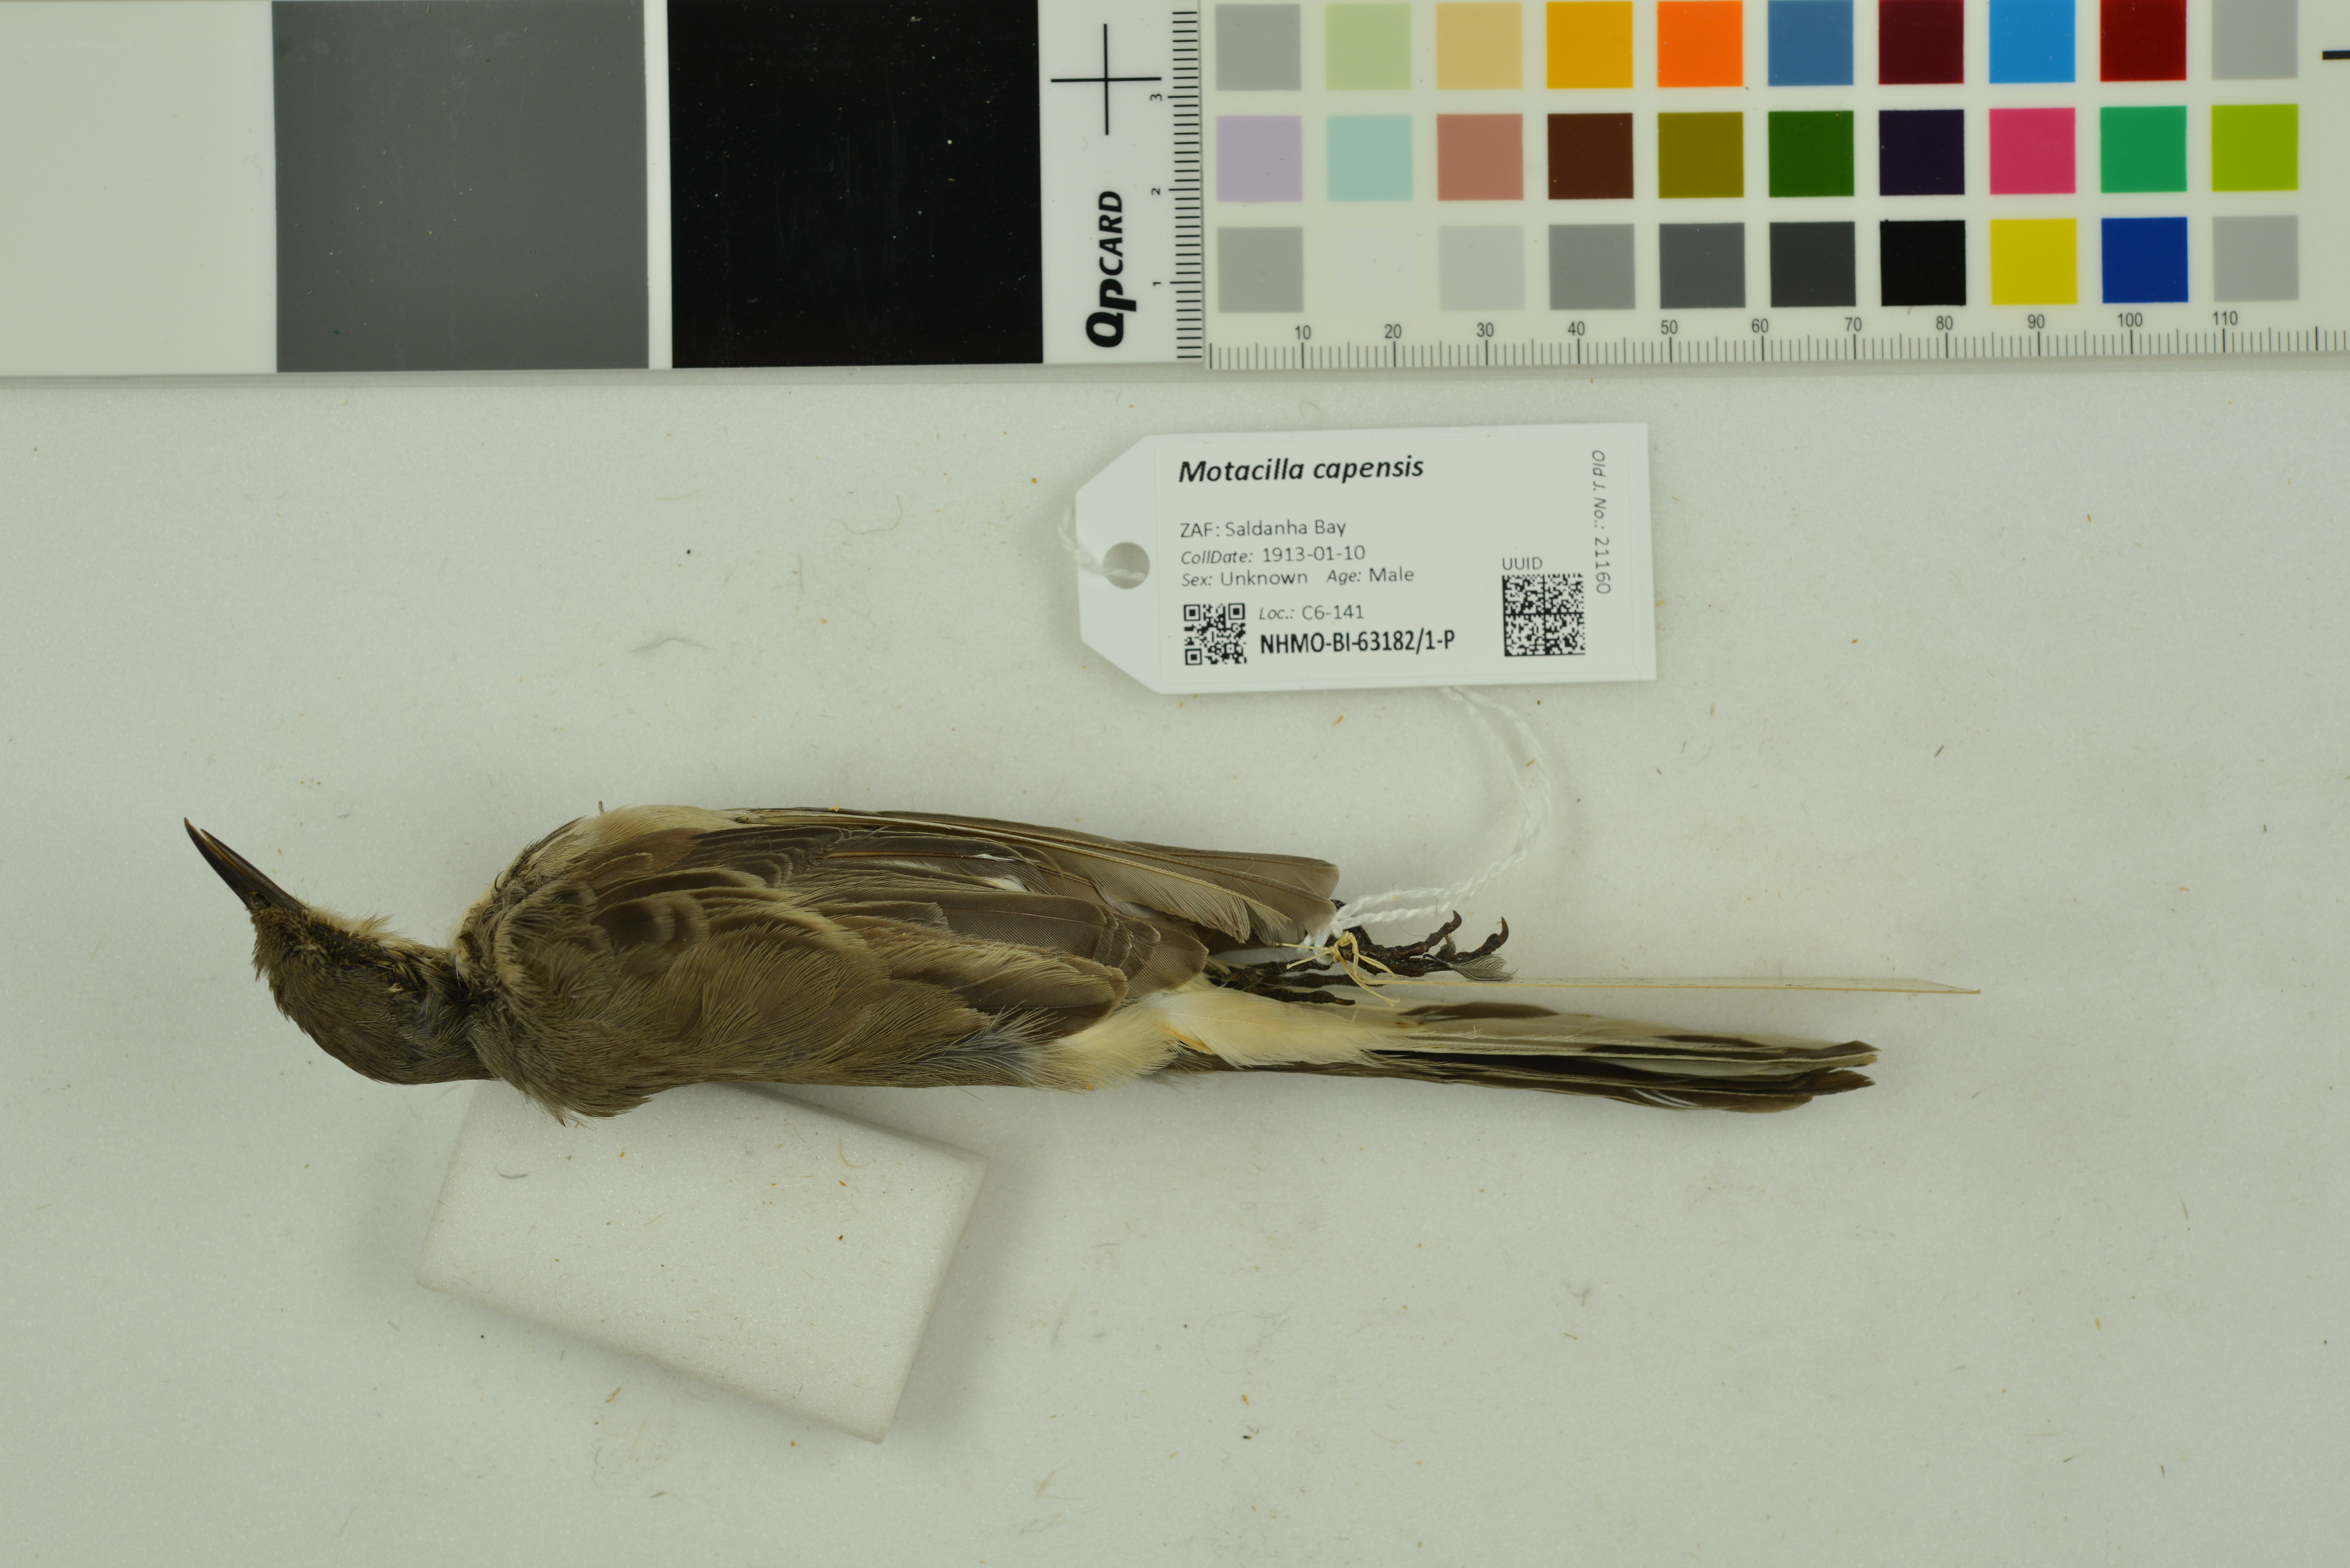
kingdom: Animalia
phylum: Chordata
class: Aves
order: Passeriformes
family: Motacillidae
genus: Motacilla
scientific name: Motacilla capensis
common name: Cape wagtail
